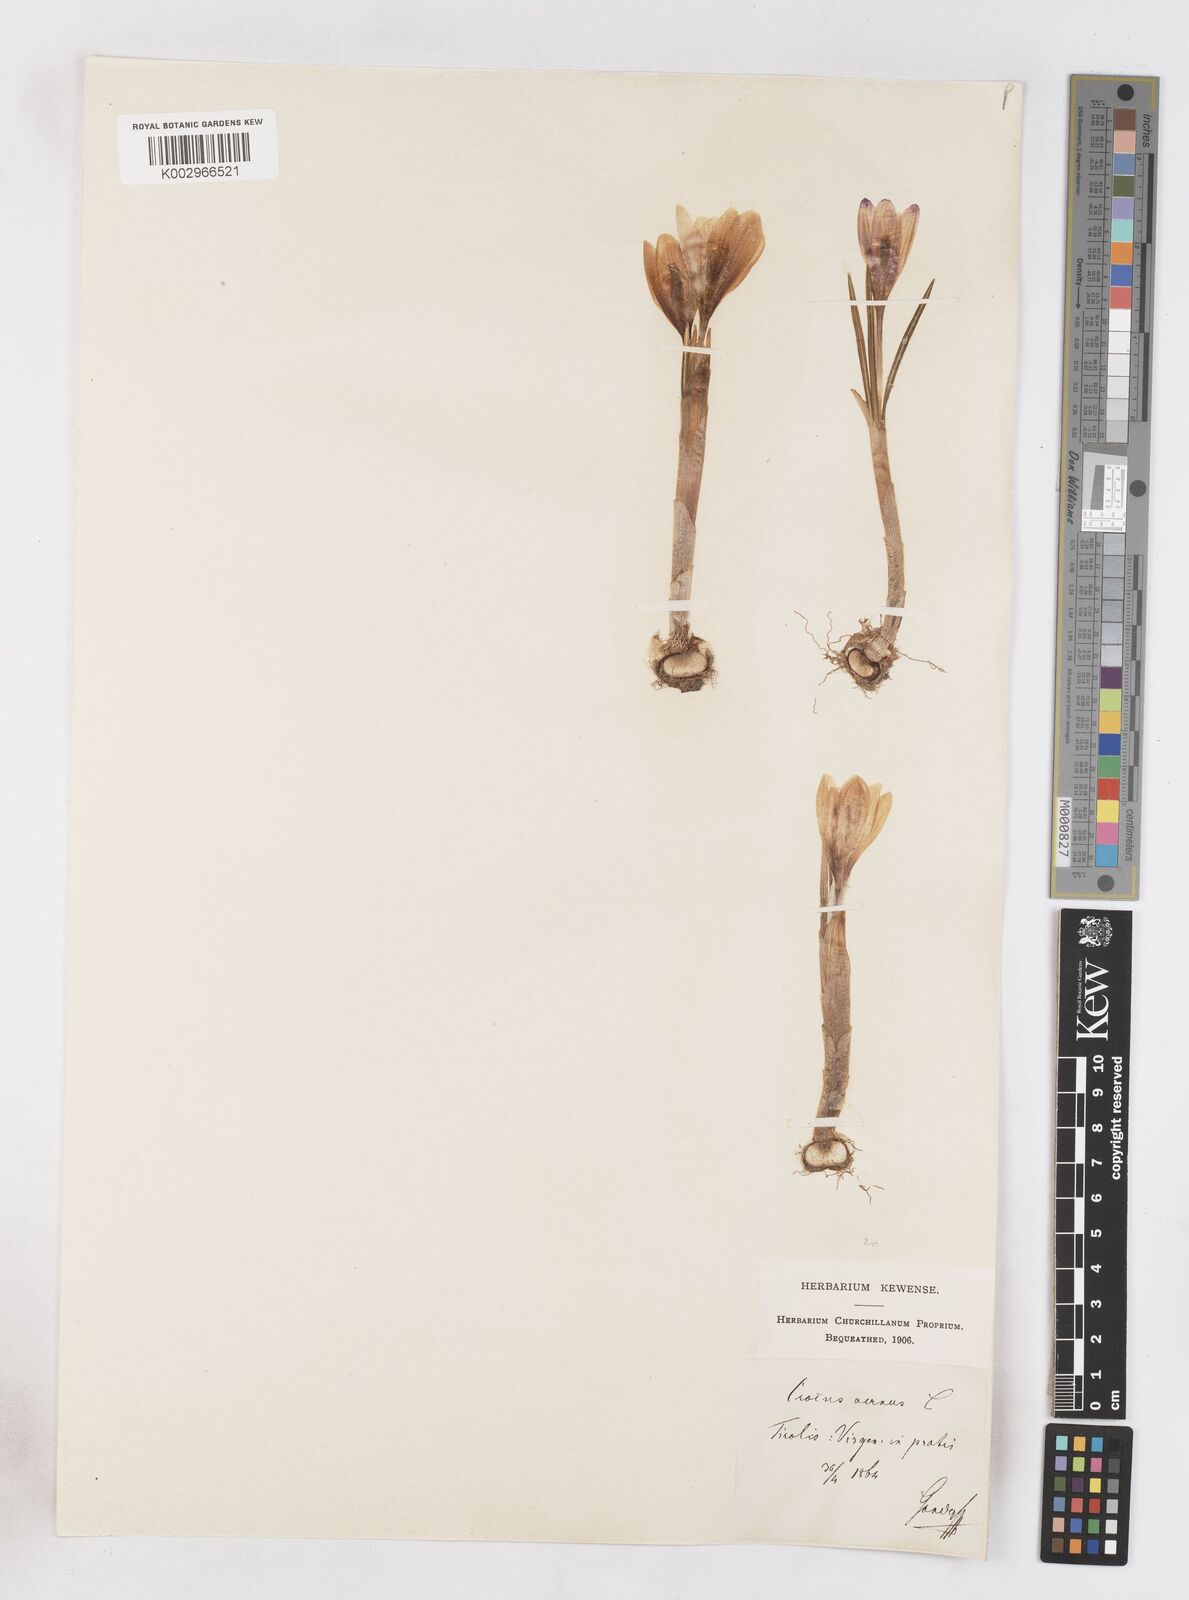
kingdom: Plantae
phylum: Tracheophyta
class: Liliopsida
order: Asparagales
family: Iridaceae
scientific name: Iridaceae
